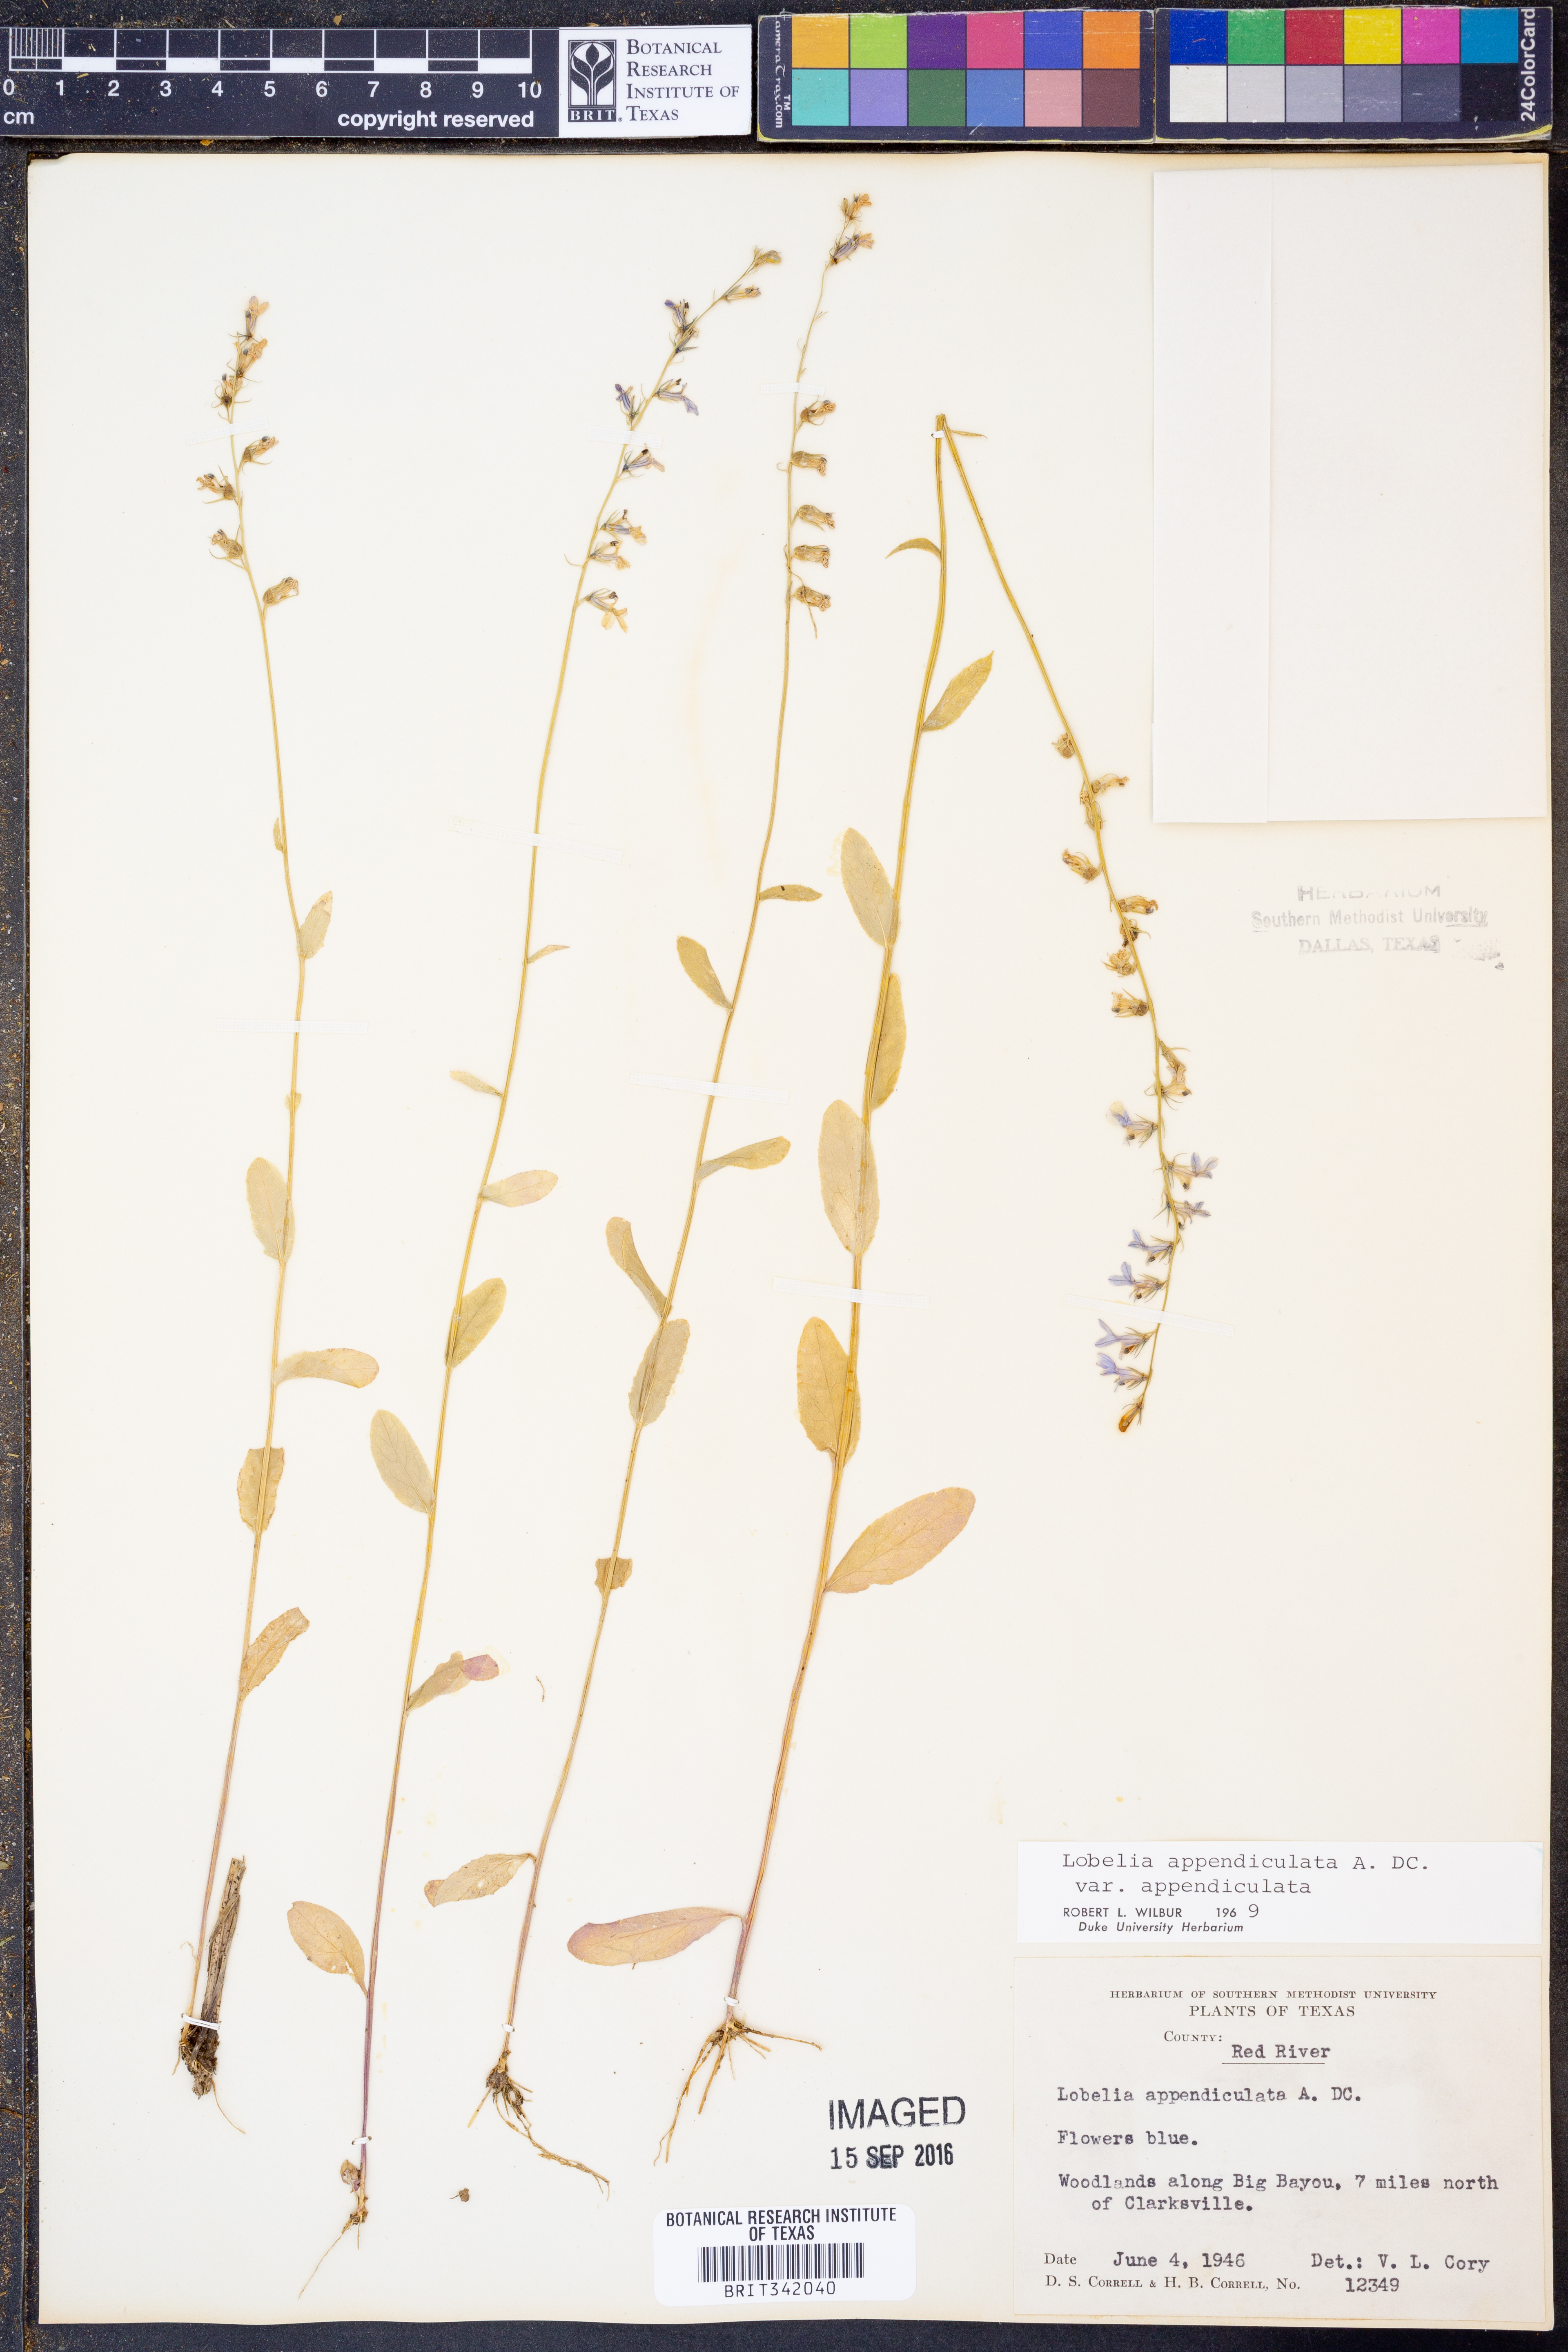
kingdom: Plantae
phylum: Tracheophyta
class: Magnoliopsida
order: Asterales
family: Campanulaceae
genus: Lobelia
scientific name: Lobelia appendiculata
